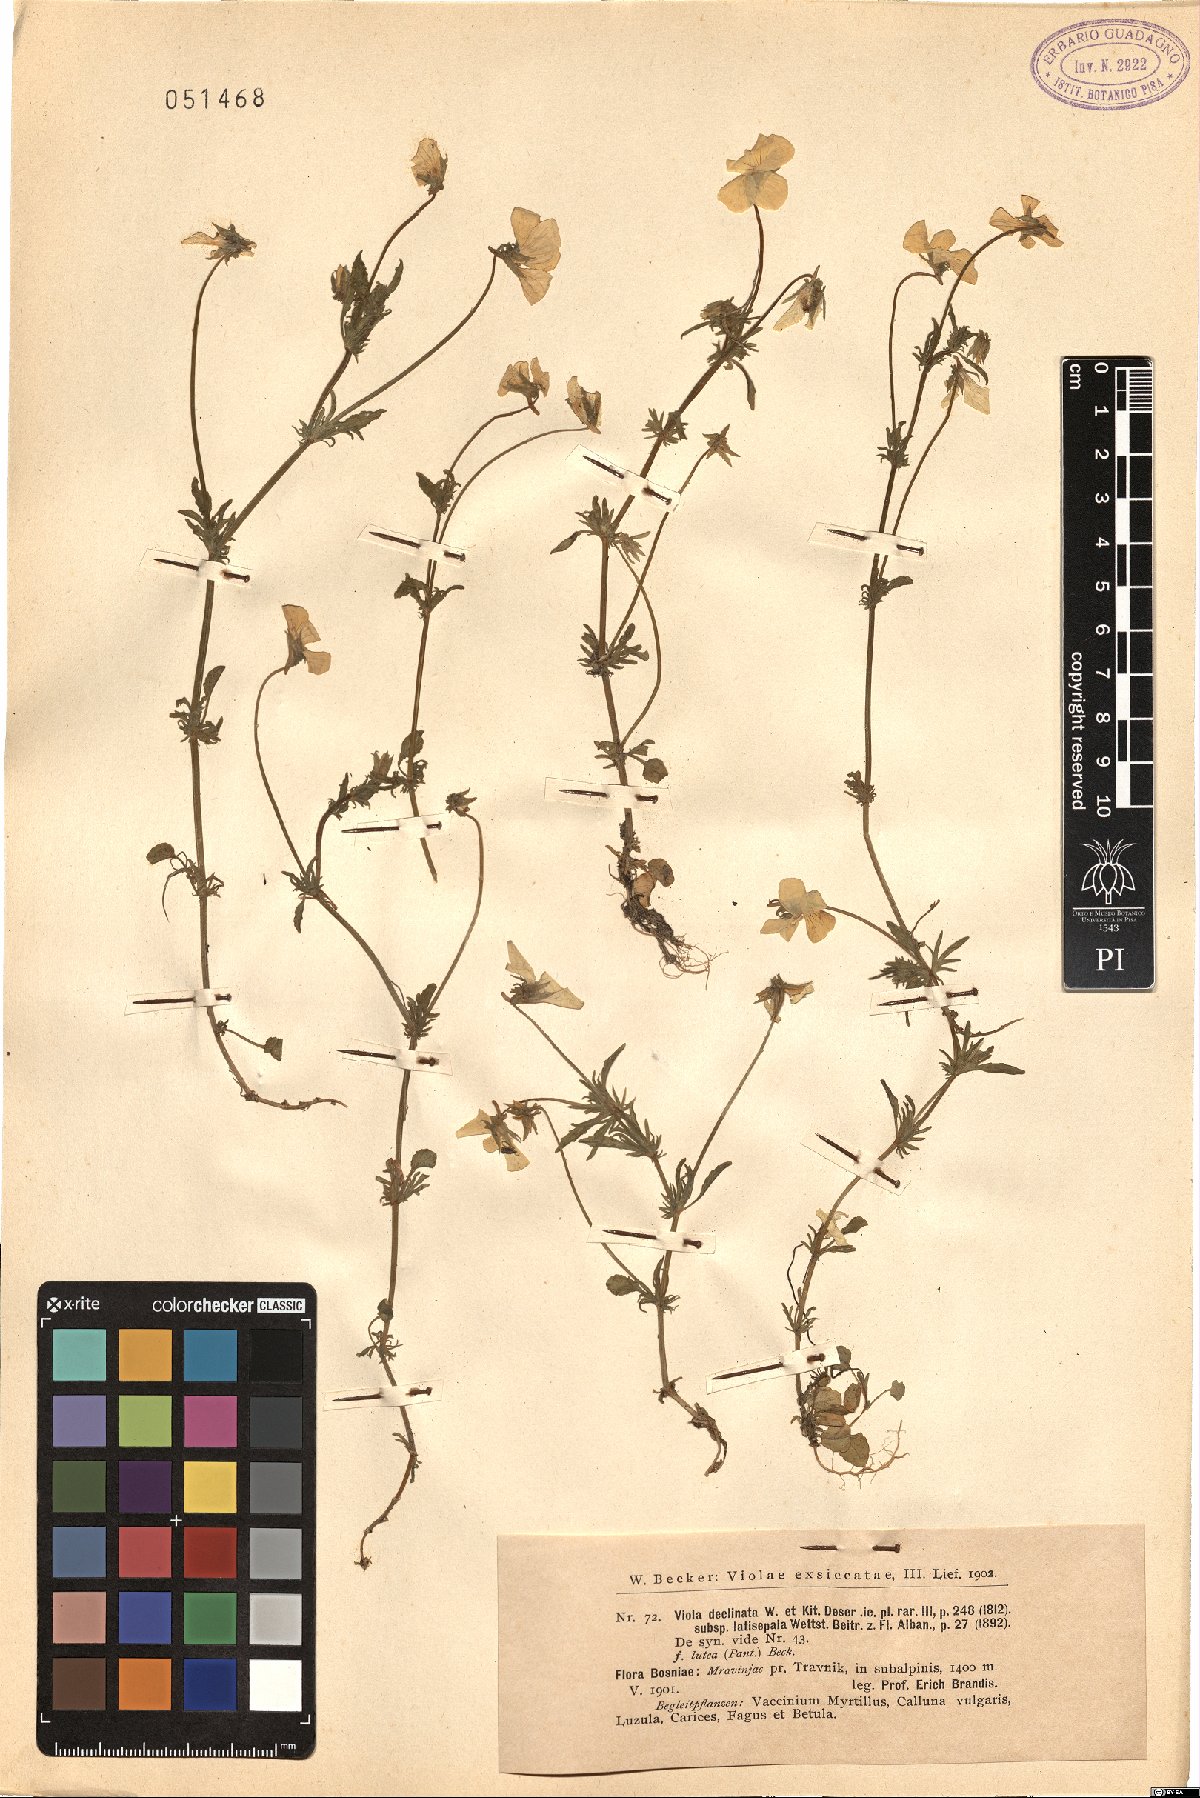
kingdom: Plantae
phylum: Tracheophyta
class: Magnoliopsida
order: Malpighiales
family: Violaceae
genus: Viola
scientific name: Viola declinata
